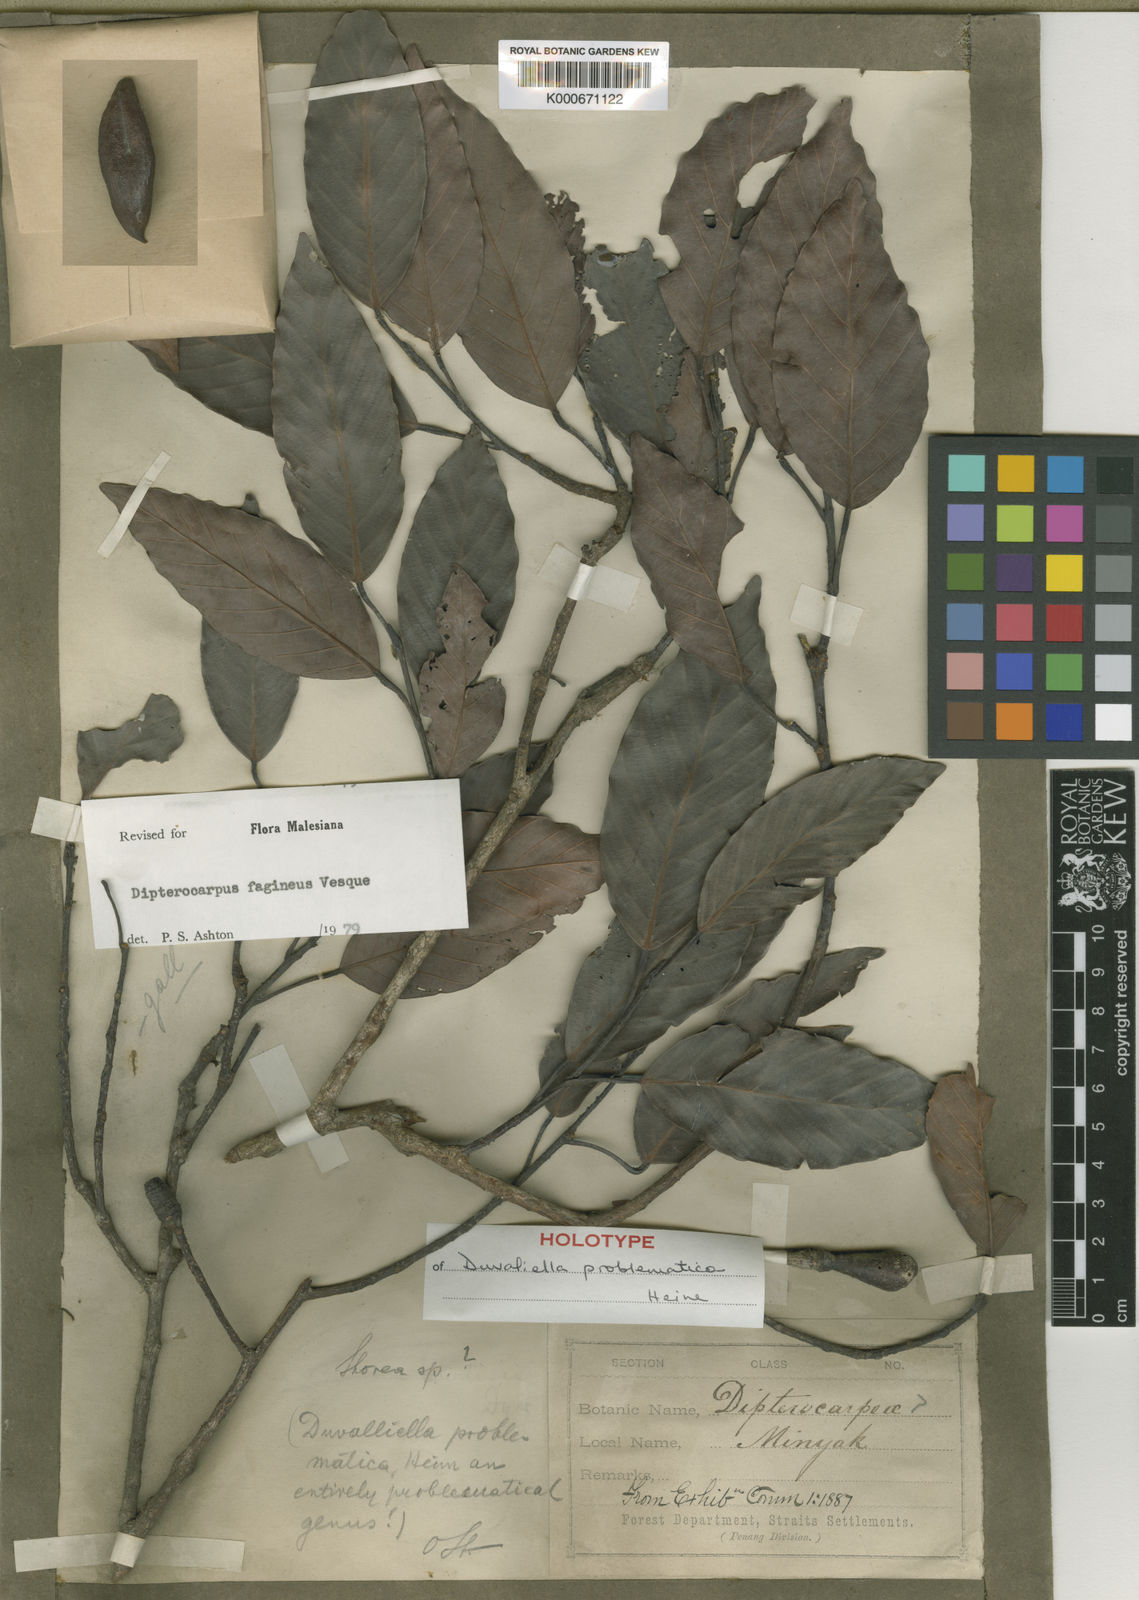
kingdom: Plantae
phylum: Tracheophyta
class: Magnoliopsida
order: Malvales
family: Dipterocarpaceae
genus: Dipterocarpus
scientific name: Dipterocarpus fagineus
